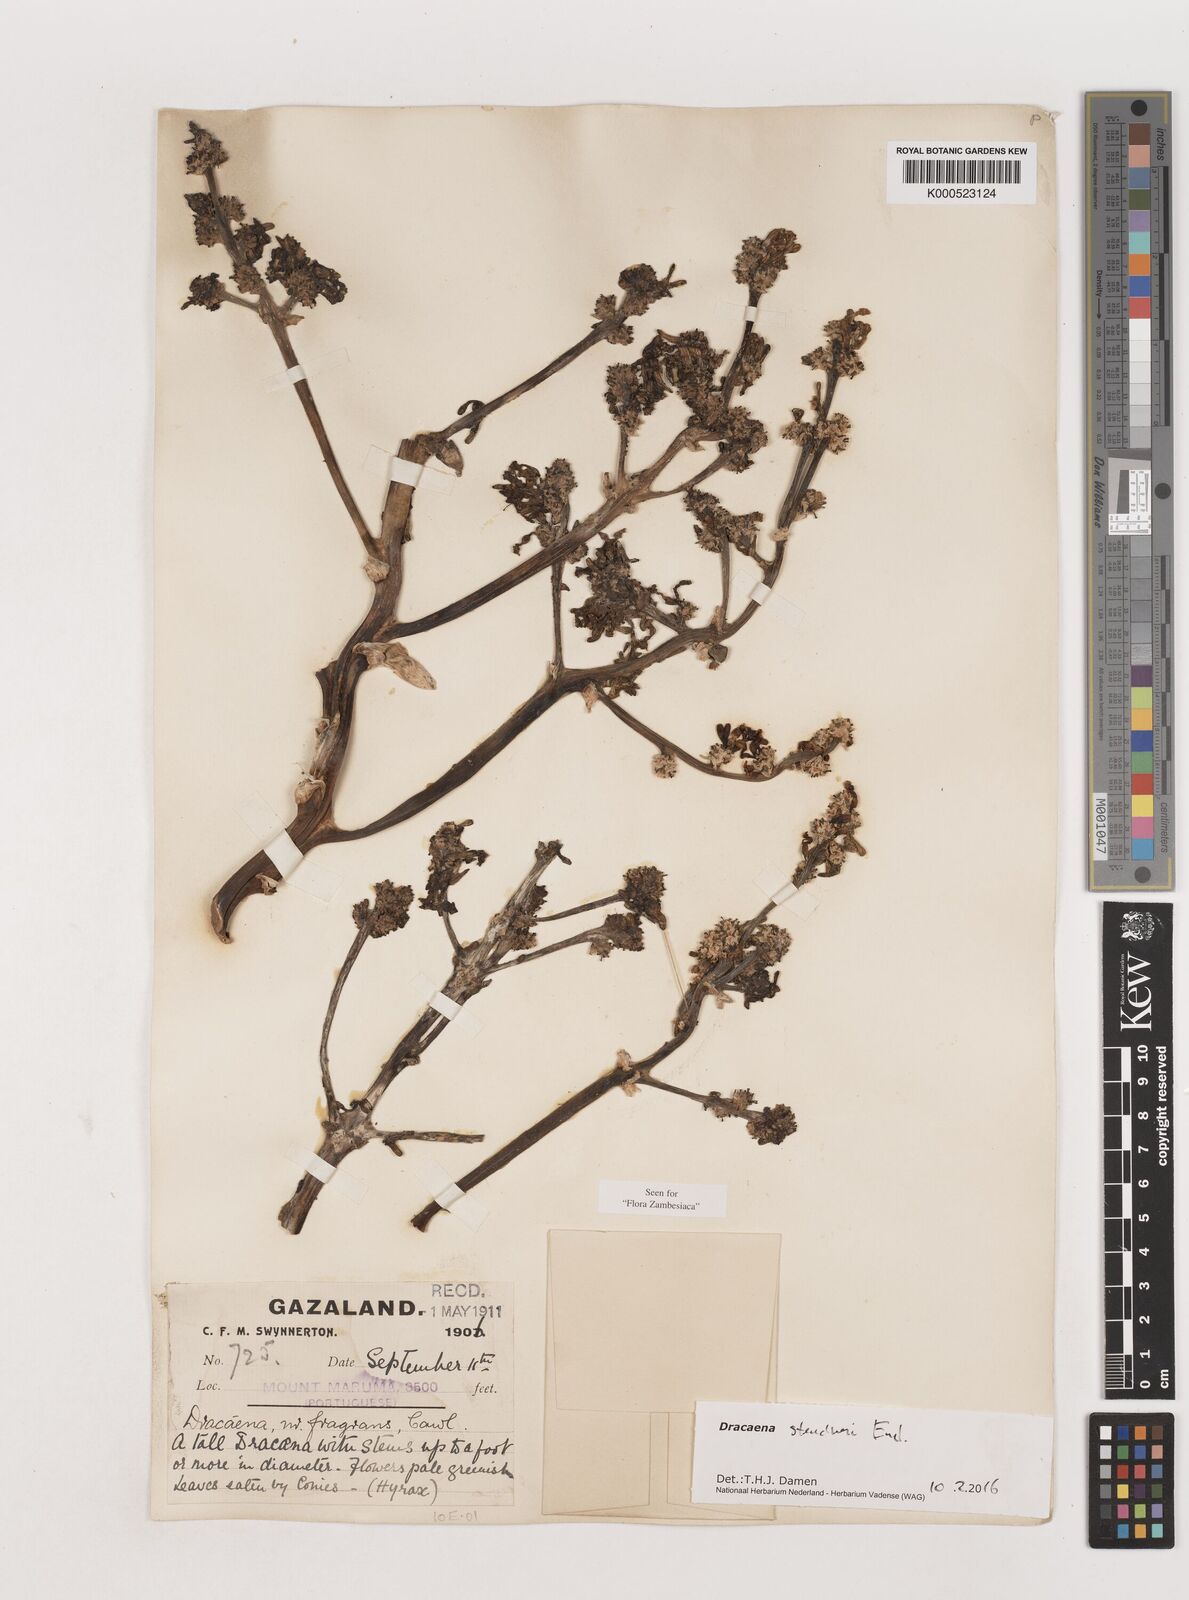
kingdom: Plantae
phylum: Tracheophyta
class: Liliopsida
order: Asparagales
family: Asparagaceae
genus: Dracaena
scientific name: Dracaena steudneri
